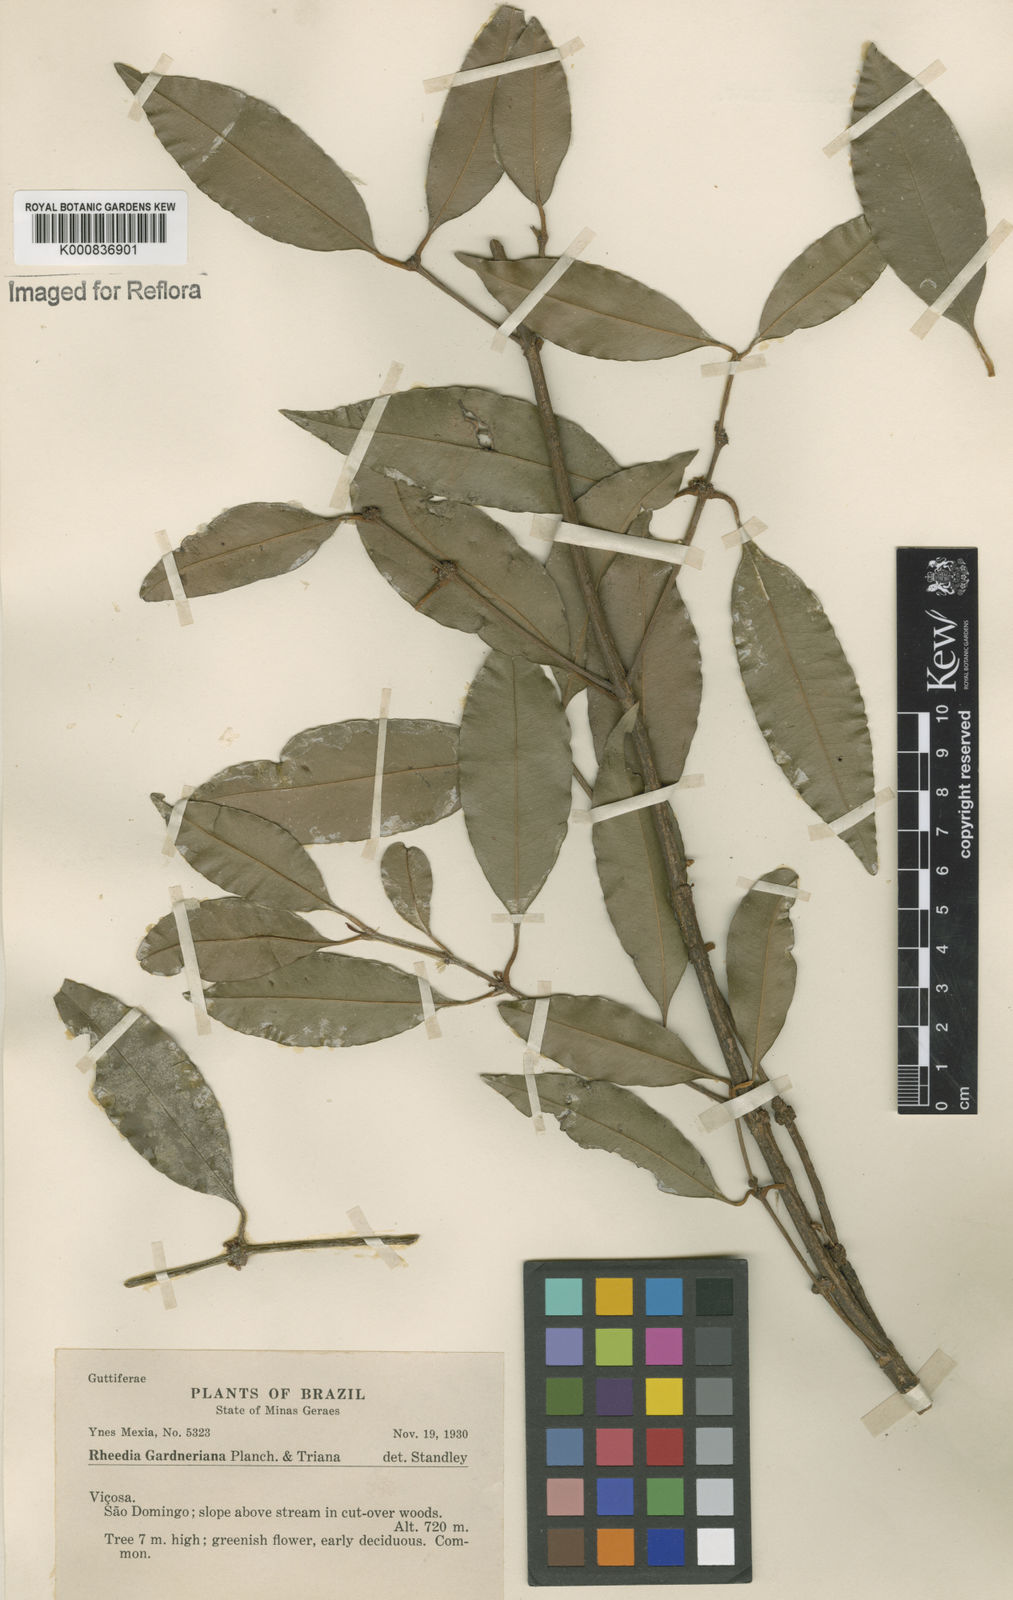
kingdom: Plantae
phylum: Tracheophyta
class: Magnoliopsida
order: Malpighiales
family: Clusiaceae
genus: Garcinia
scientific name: Garcinia gardneriana
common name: Achacha
